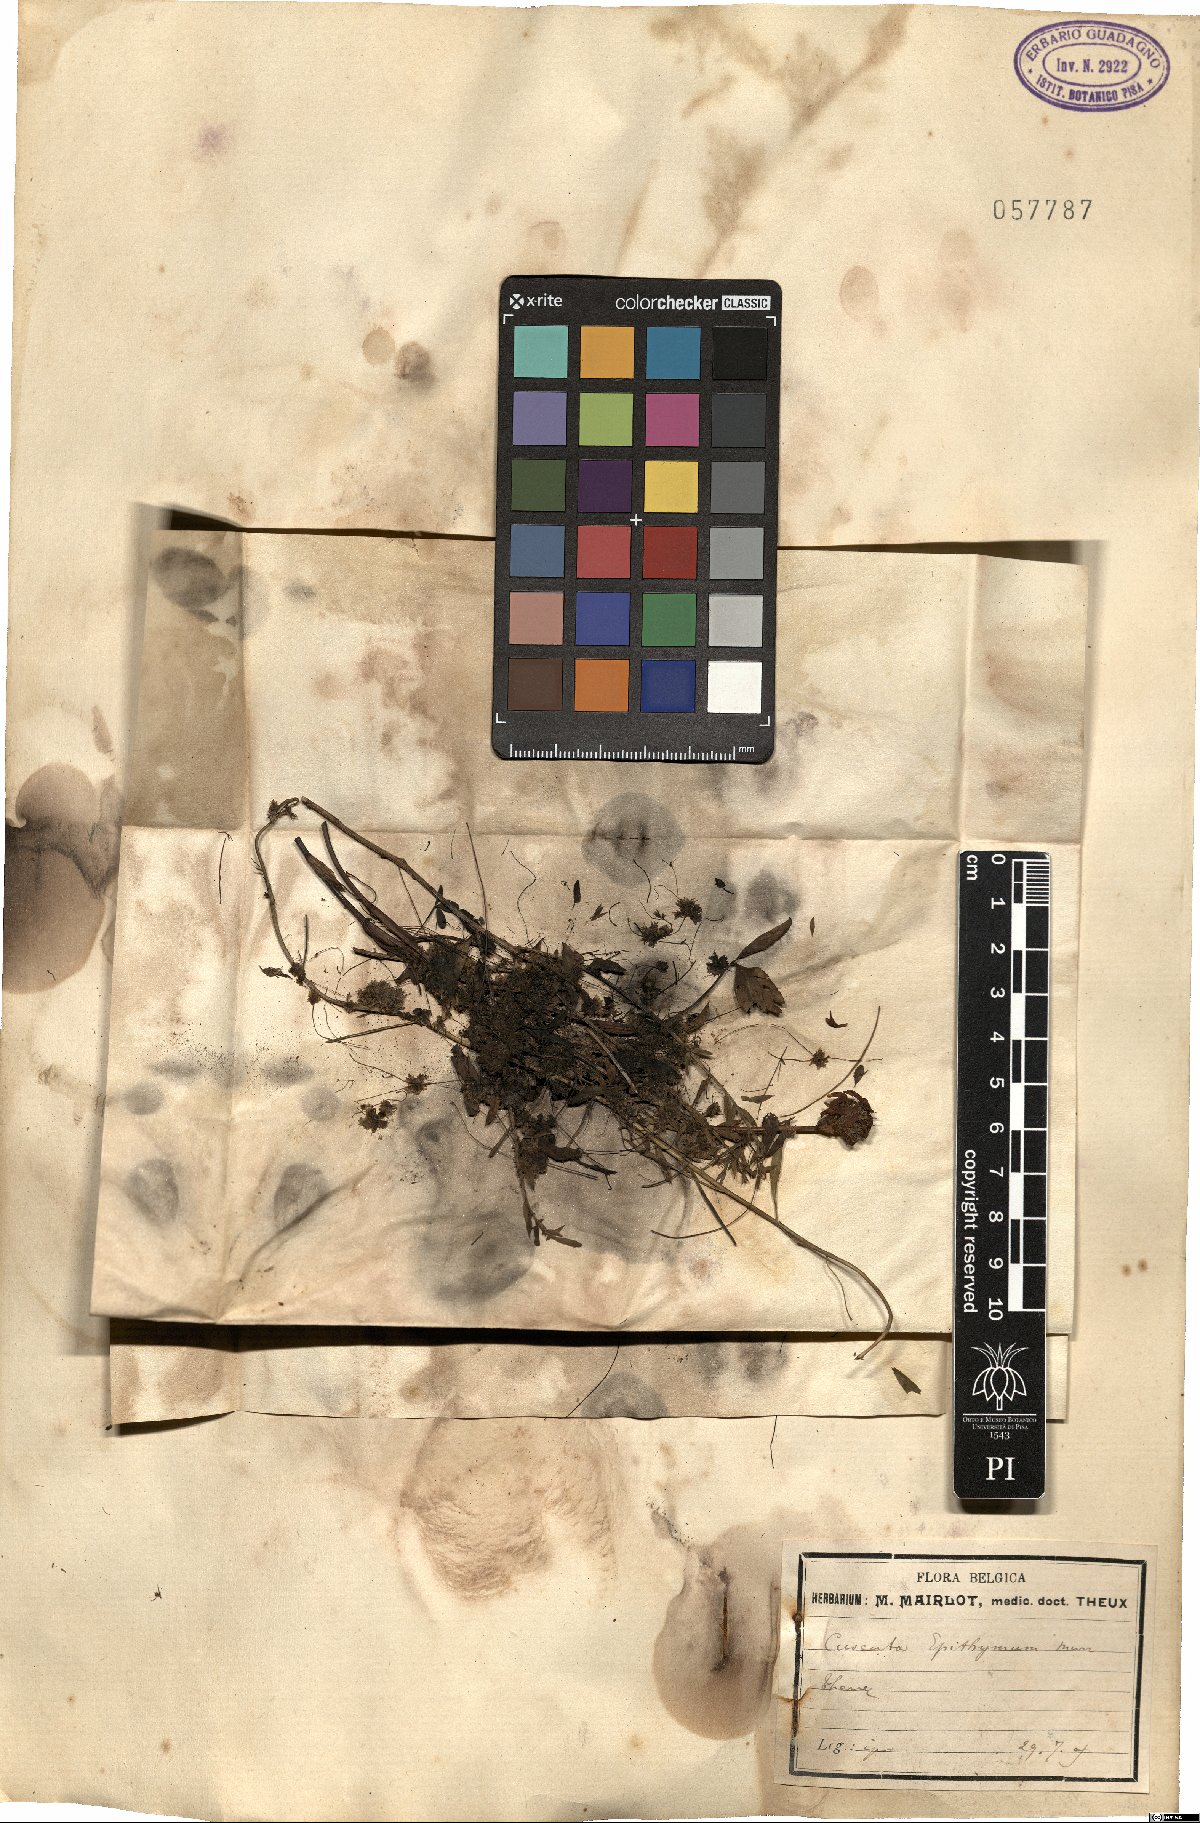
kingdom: Plantae
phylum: Tracheophyta
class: Magnoliopsida
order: Solanales
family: Convolvulaceae
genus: Cuscuta
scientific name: Cuscuta epithymum
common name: Clover dodder
